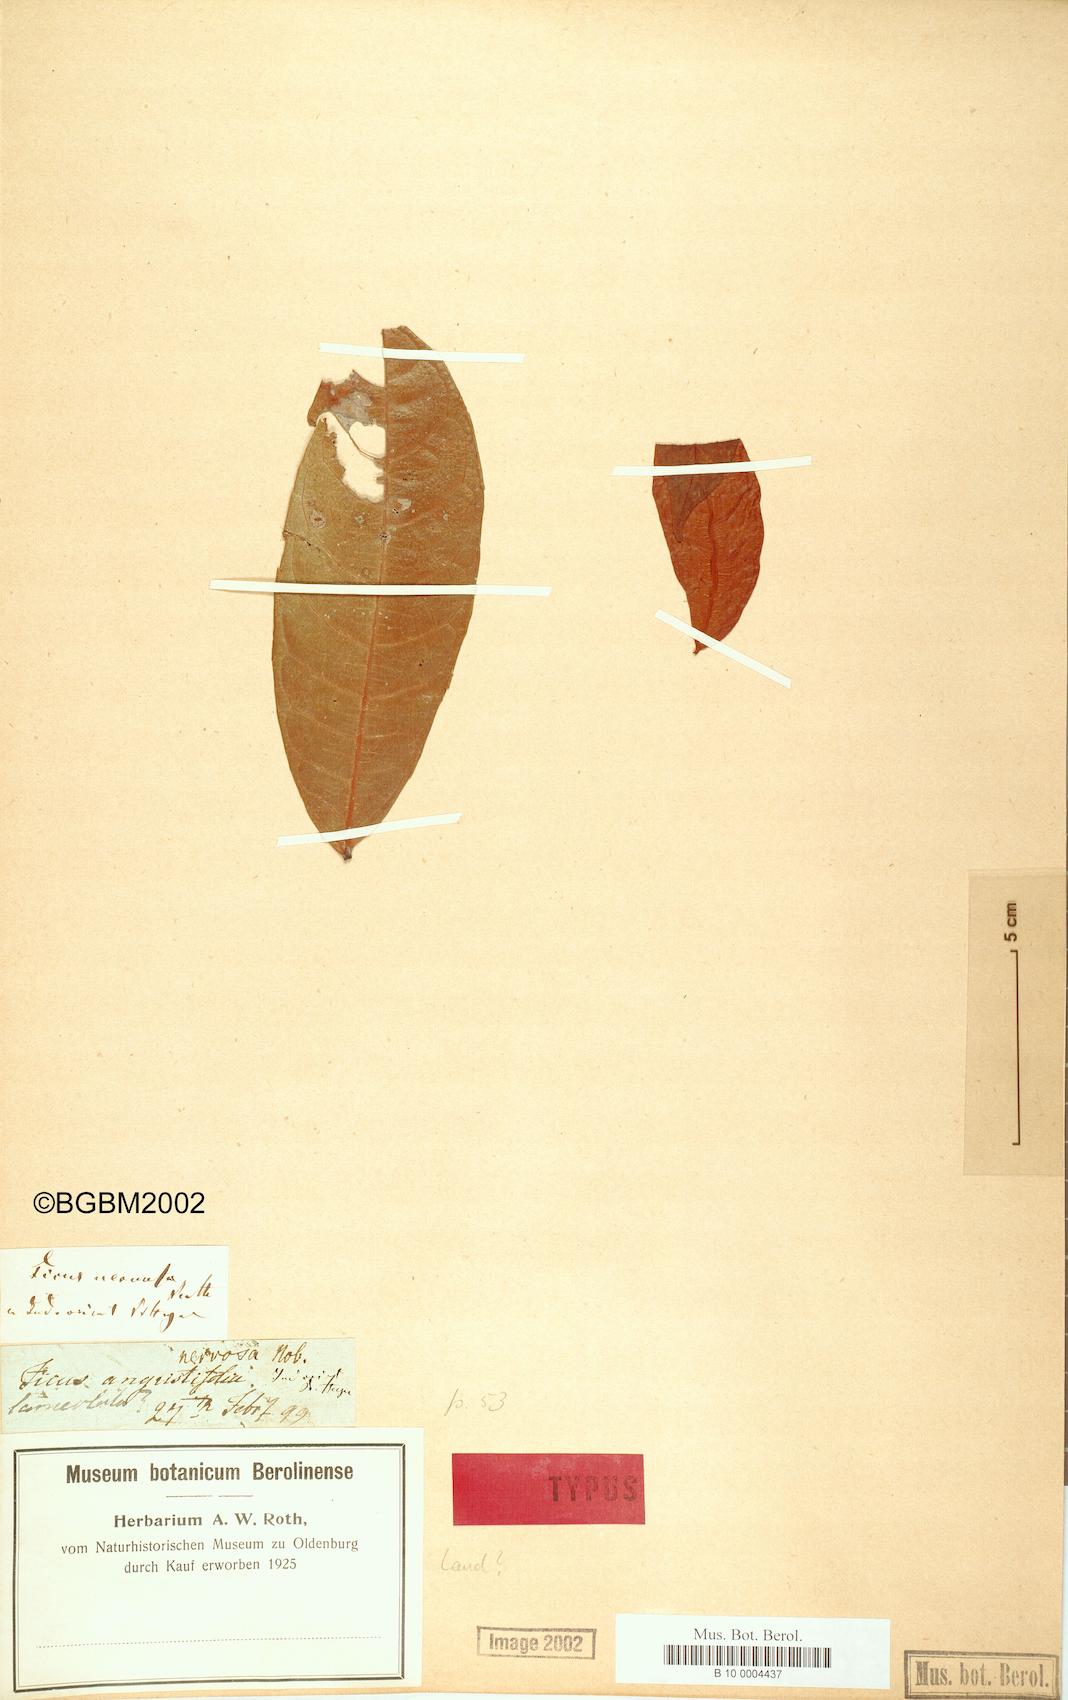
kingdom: Plantae
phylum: Tracheophyta
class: Magnoliopsida
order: Rosales
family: Moraceae
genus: Ficus
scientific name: Ficus nervosa
